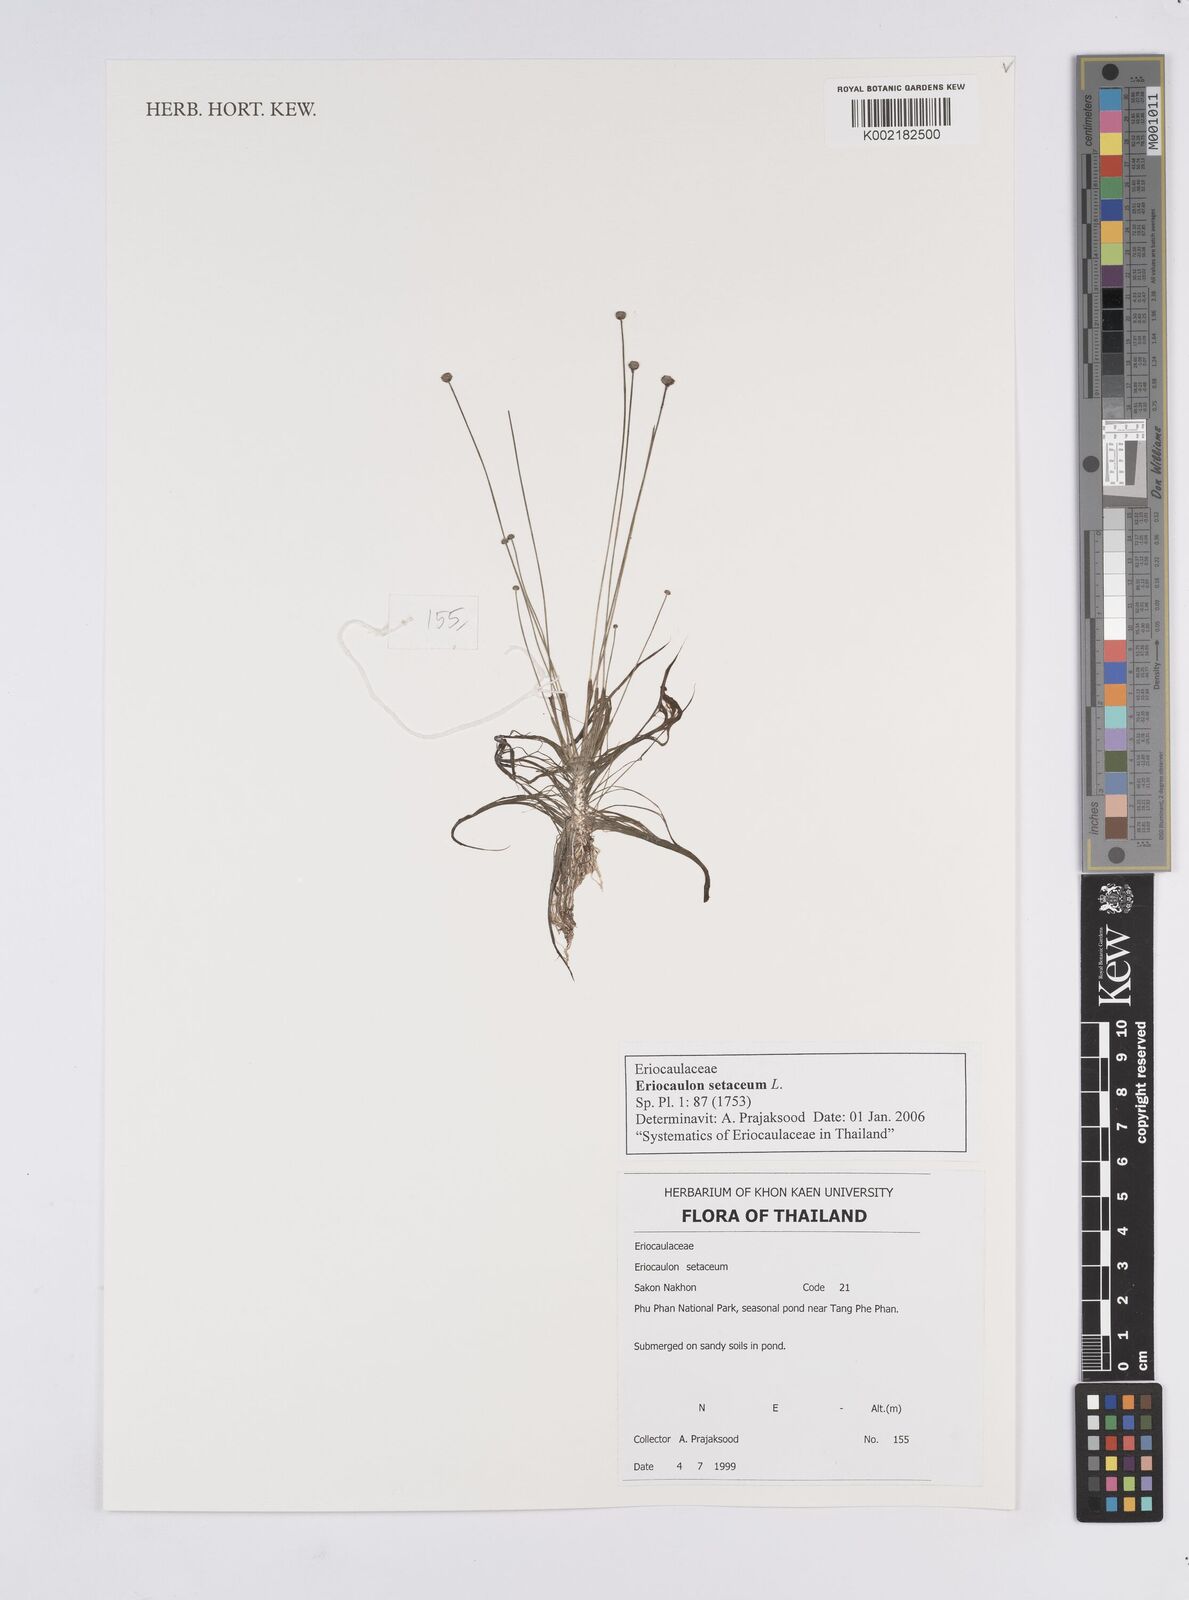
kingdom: Plantae
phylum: Tracheophyta
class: Liliopsida
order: Poales
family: Eriocaulaceae
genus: Eriocaulon
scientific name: Eriocaulon setaceum
